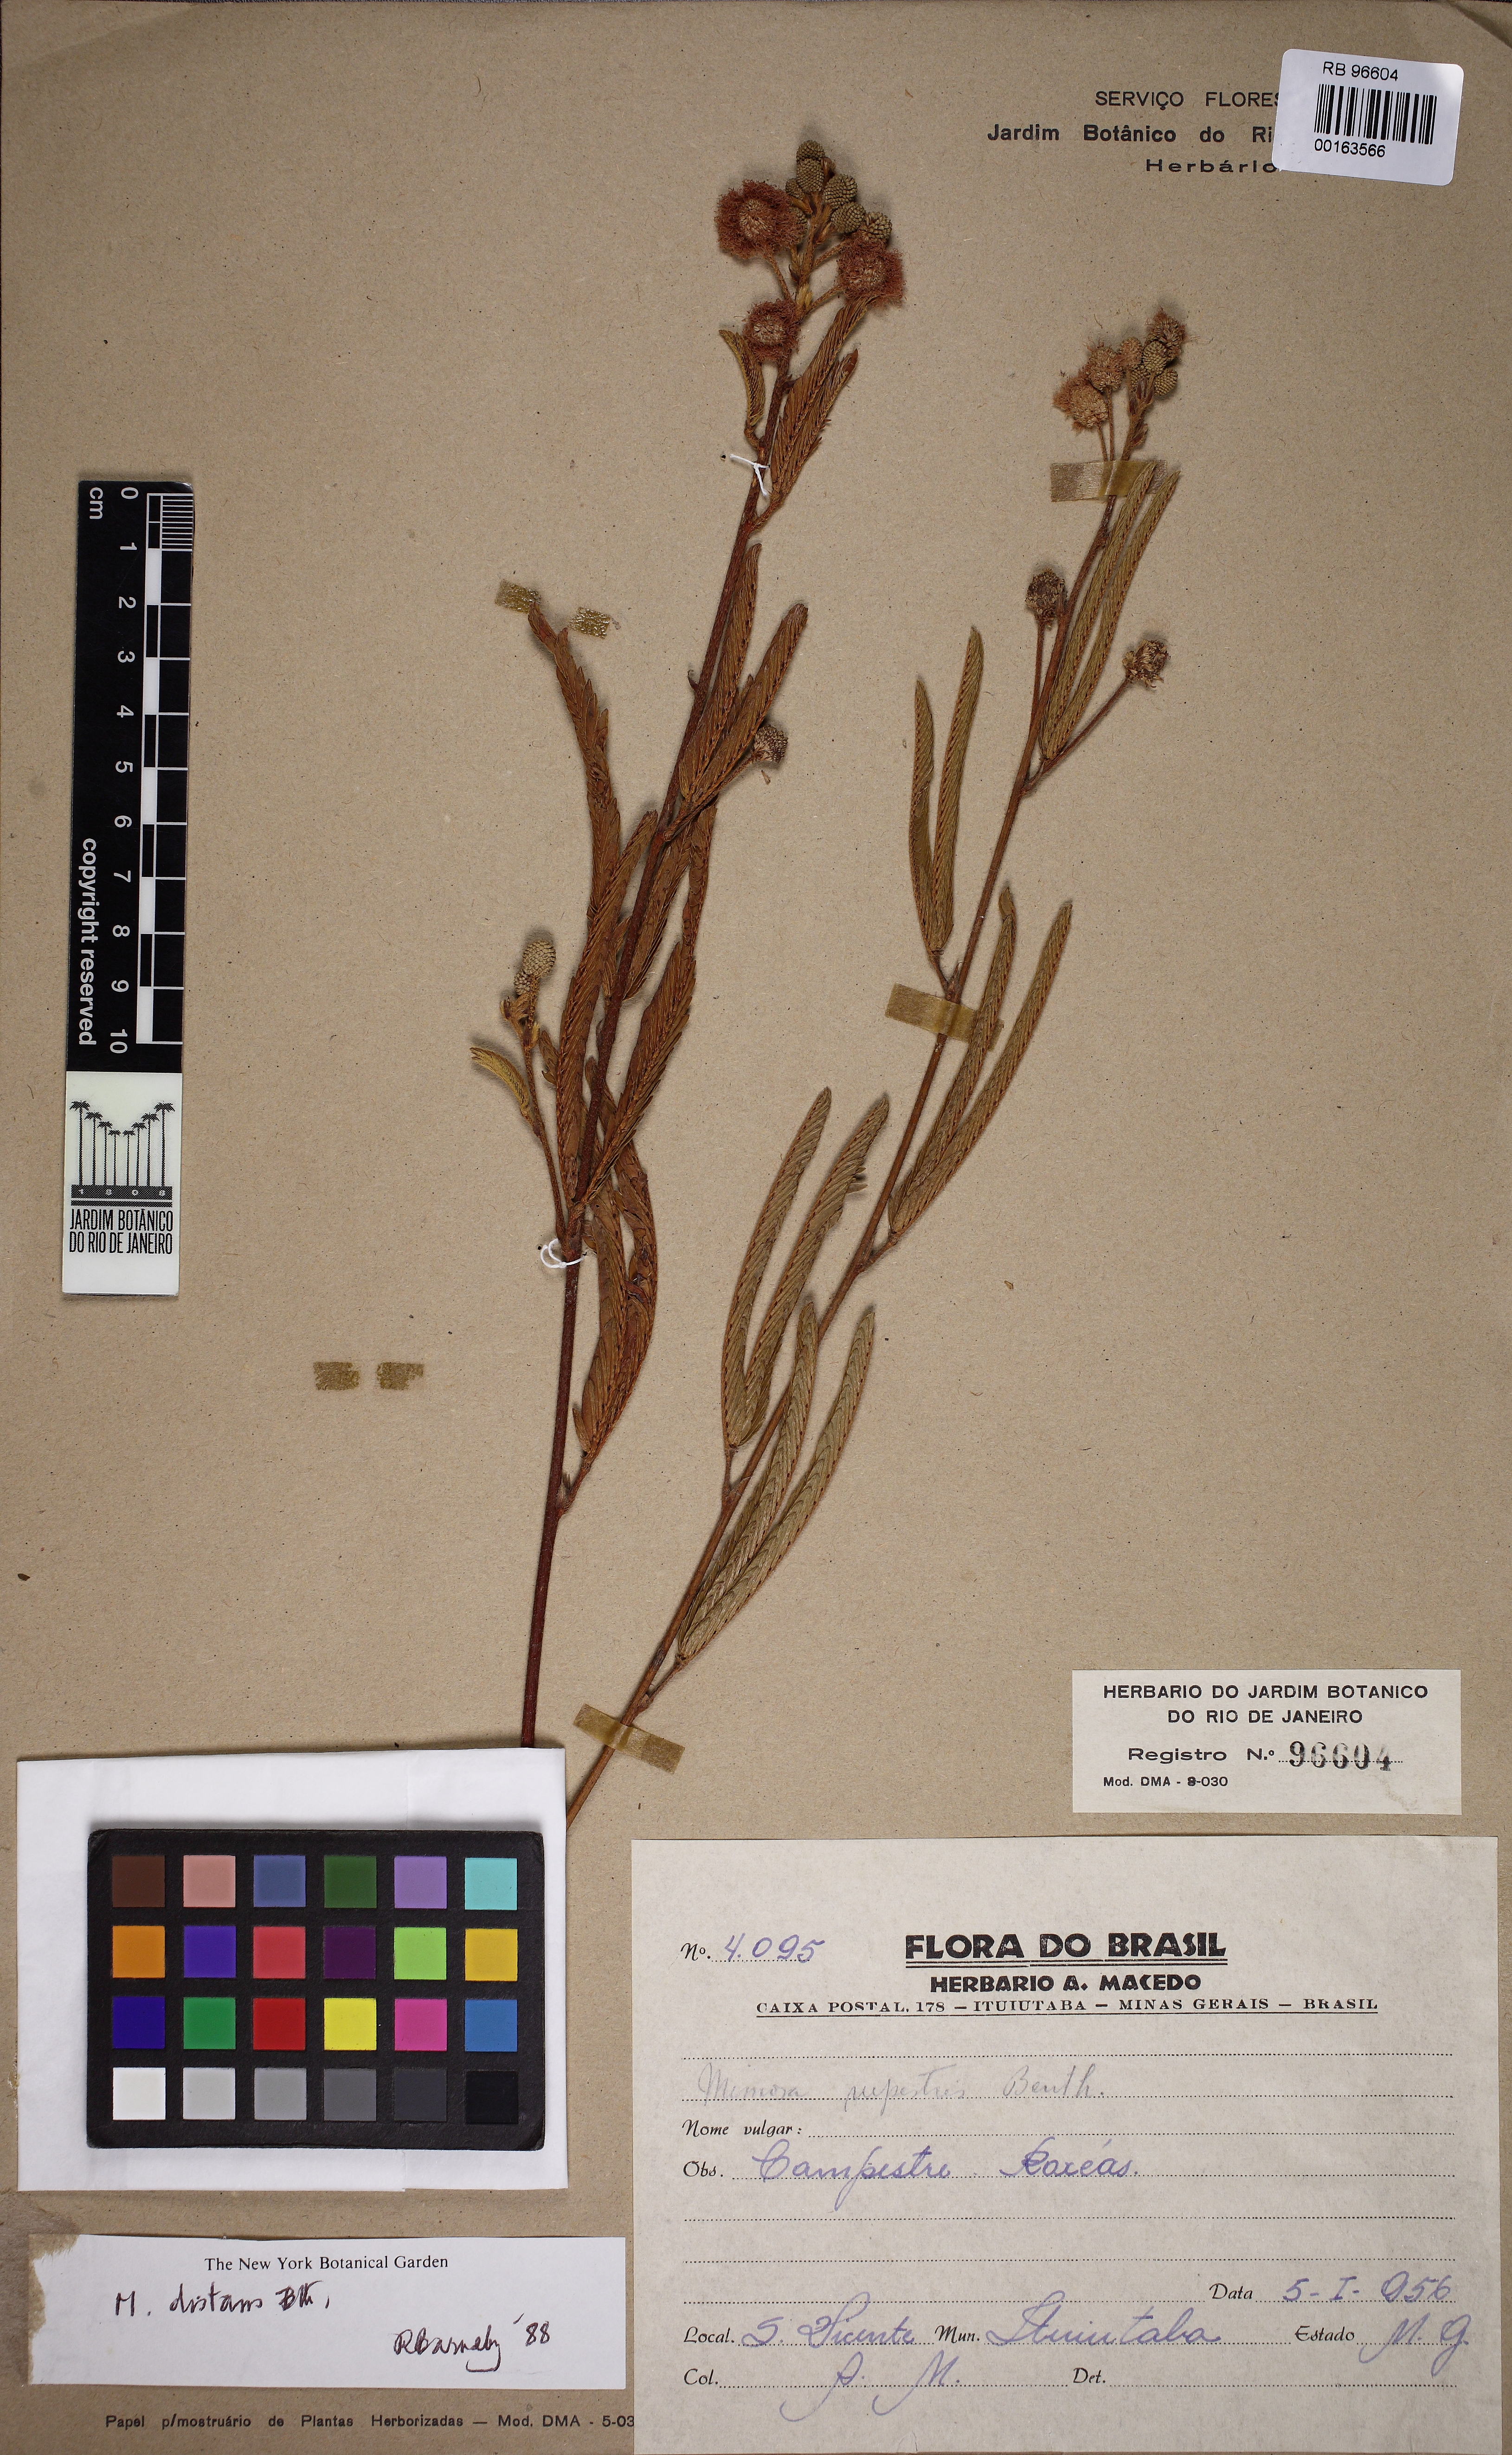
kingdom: Plantae
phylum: Tracheophyta
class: Magnoliopsida
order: Fabales
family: Fabaceae
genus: Mimosa
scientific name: Mimosa rupestris
